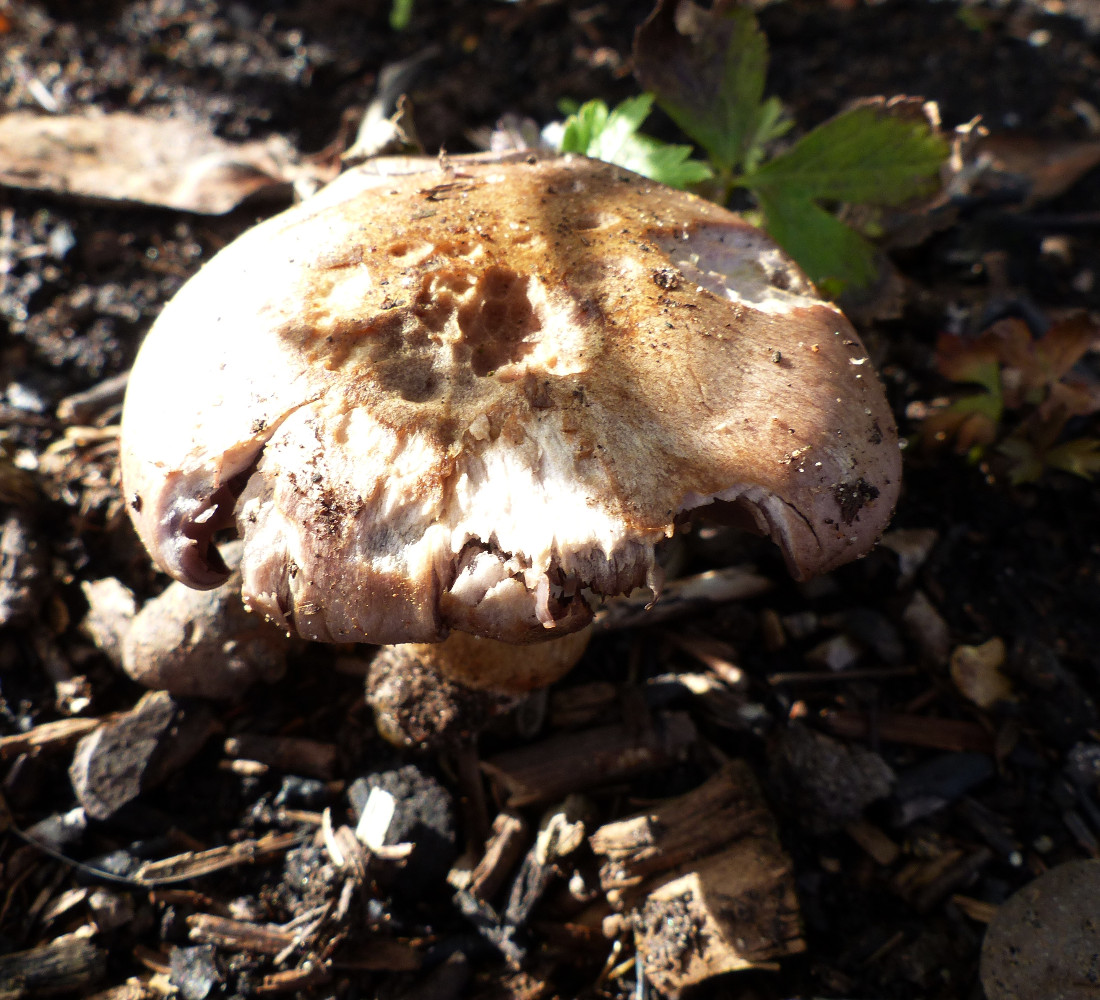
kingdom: Fungi
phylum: Basidiomycota
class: Agaricomycetes
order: Agaricales
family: Cortinariaceae
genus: Cortinarius
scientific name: Cortinarius largus
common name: violetrandet slørhat
